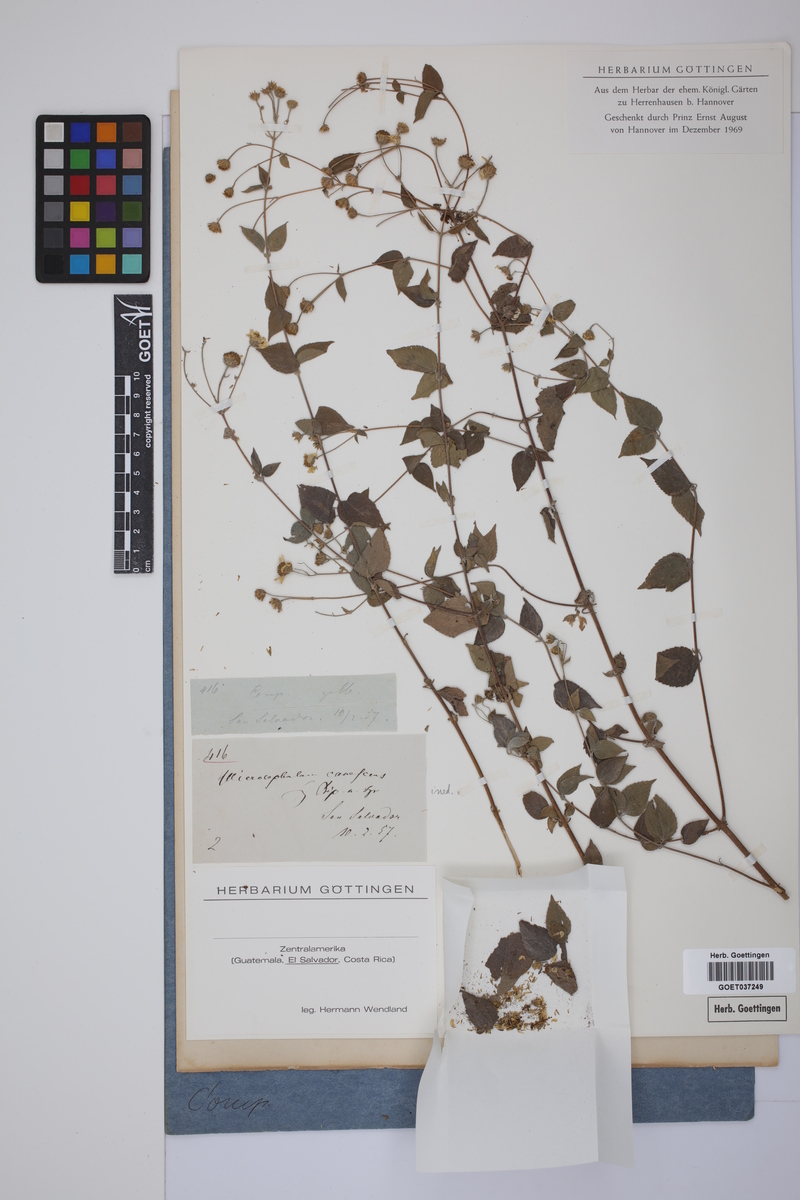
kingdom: Plantae
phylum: Tracheophyta
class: Magnoliopsida
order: Asterales
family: Asteraceae
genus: Hymenostephium
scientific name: Hymenostephium
